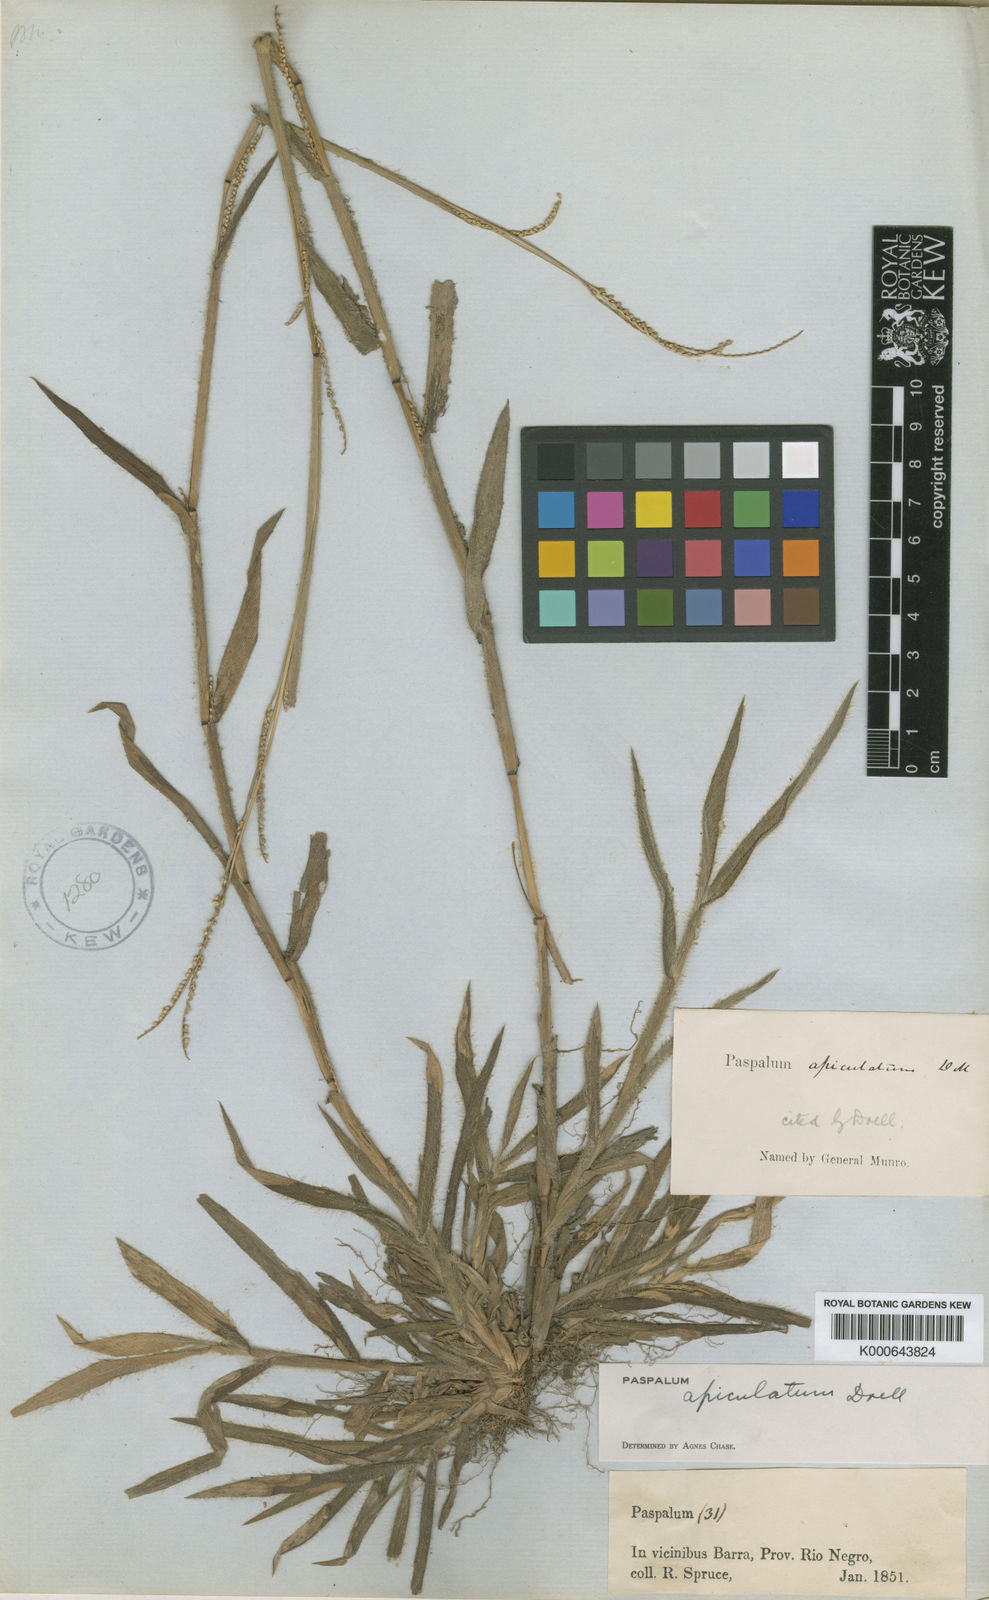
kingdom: Plantae
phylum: Tracheophyta
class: Liliopsida
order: Poales
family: Poaceae
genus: Paspalum
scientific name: Paspalum
